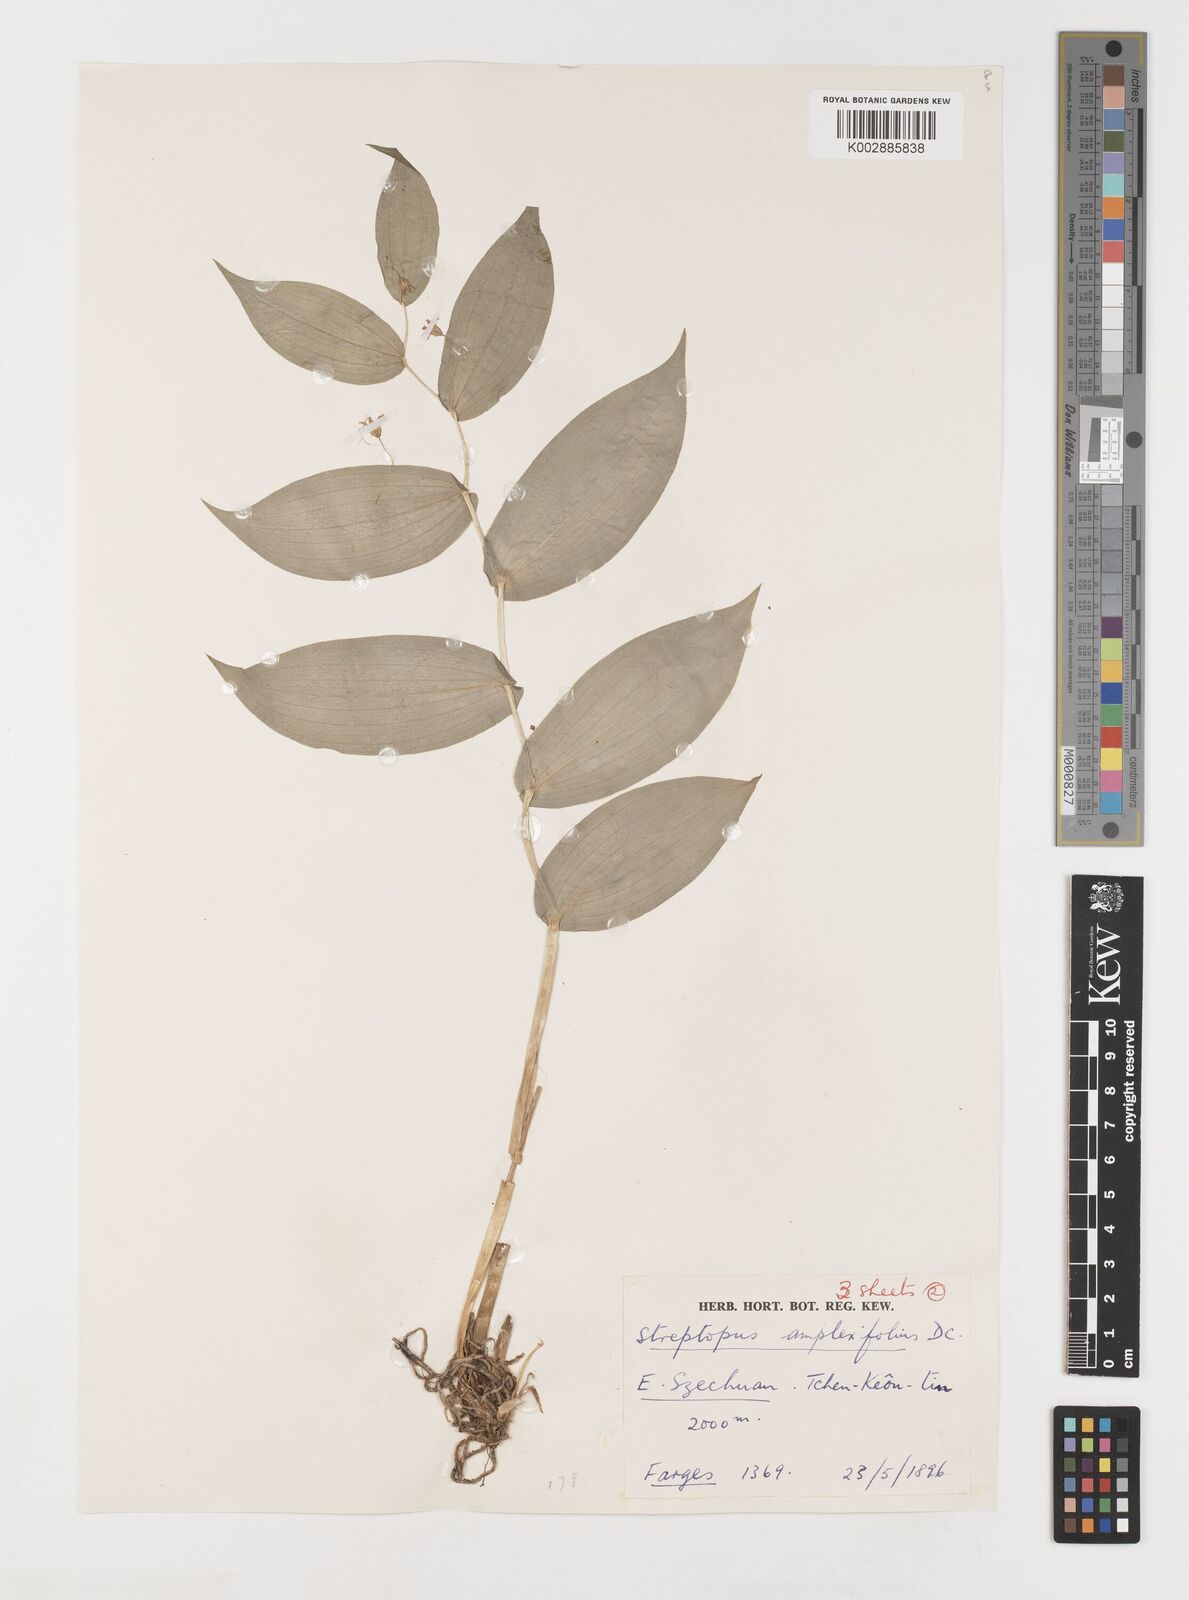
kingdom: Plantae
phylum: Tracheophyta
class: Liliopsida
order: Liliales
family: Liliaceae
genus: Streptopus
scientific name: Streptopus amplexifolius
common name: Clasp twisted stalk
